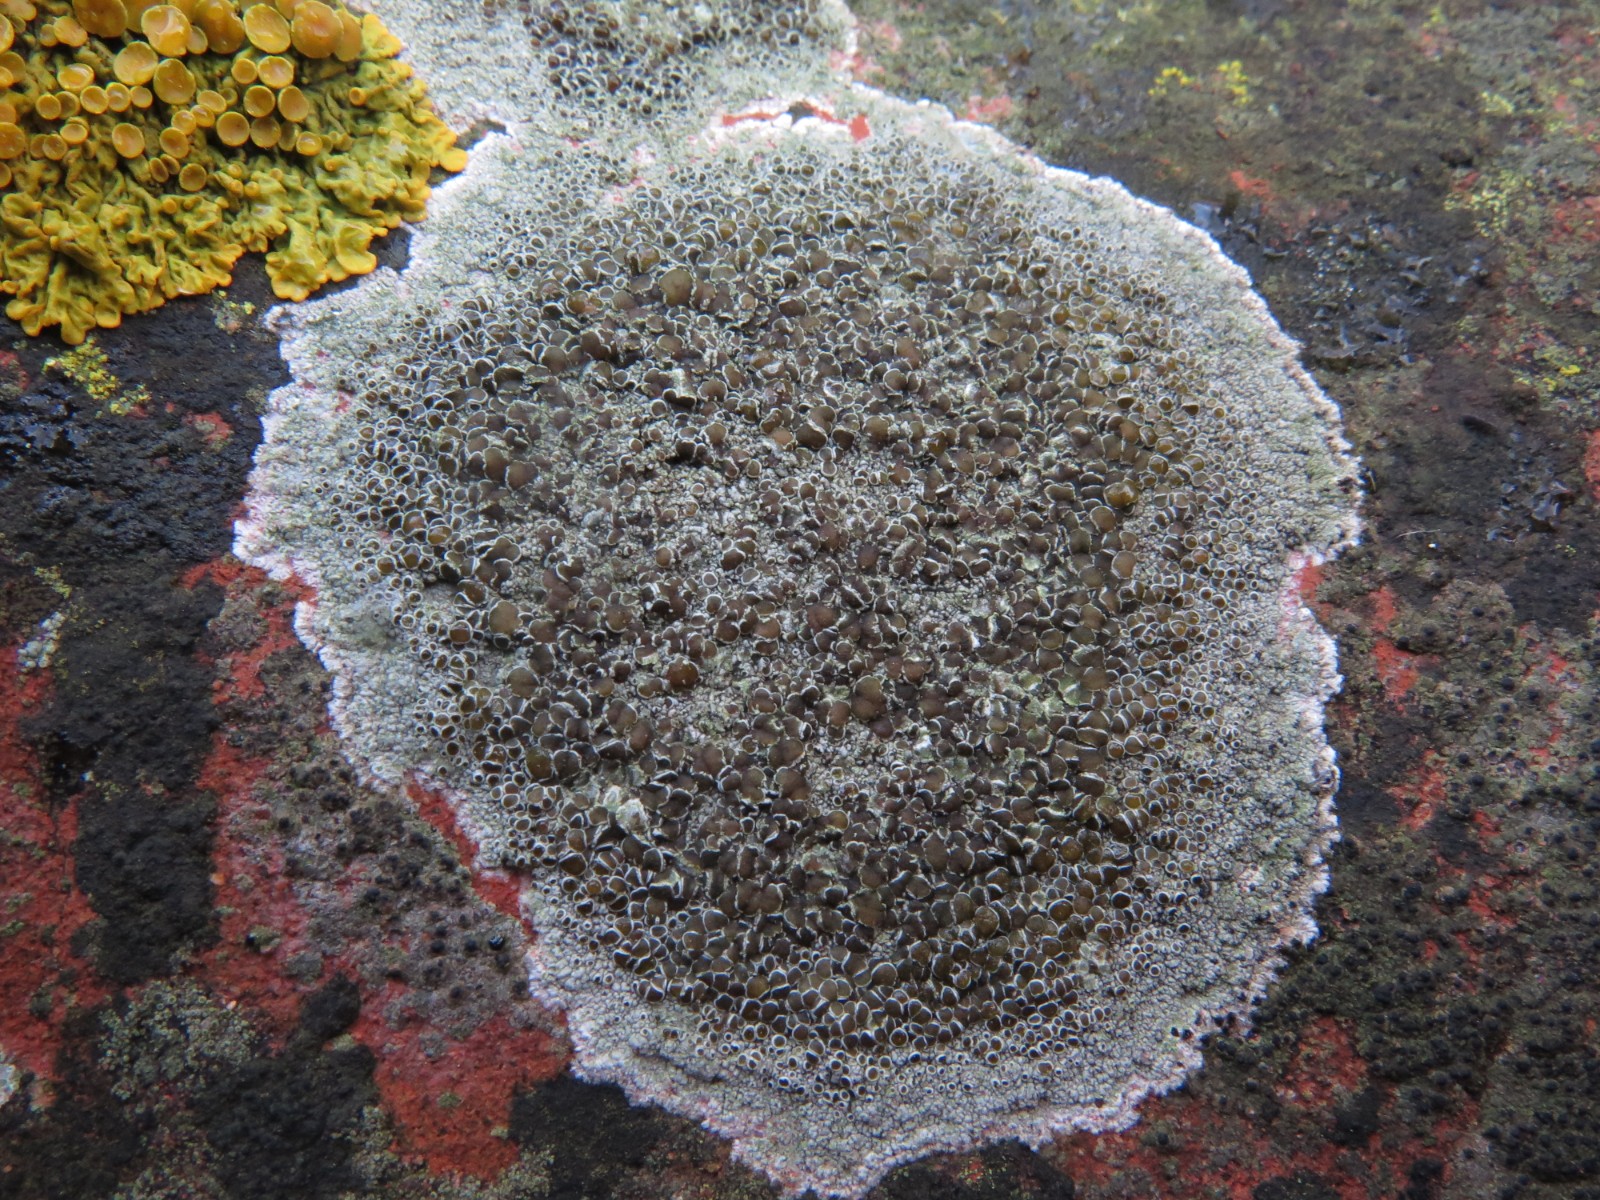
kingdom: Fungi
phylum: Ascomycota
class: Lecanoromycetes
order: Lecanorales
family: Lecanoraceae
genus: Lecanora
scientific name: Lecanora campestris
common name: mur-kantskivelav
